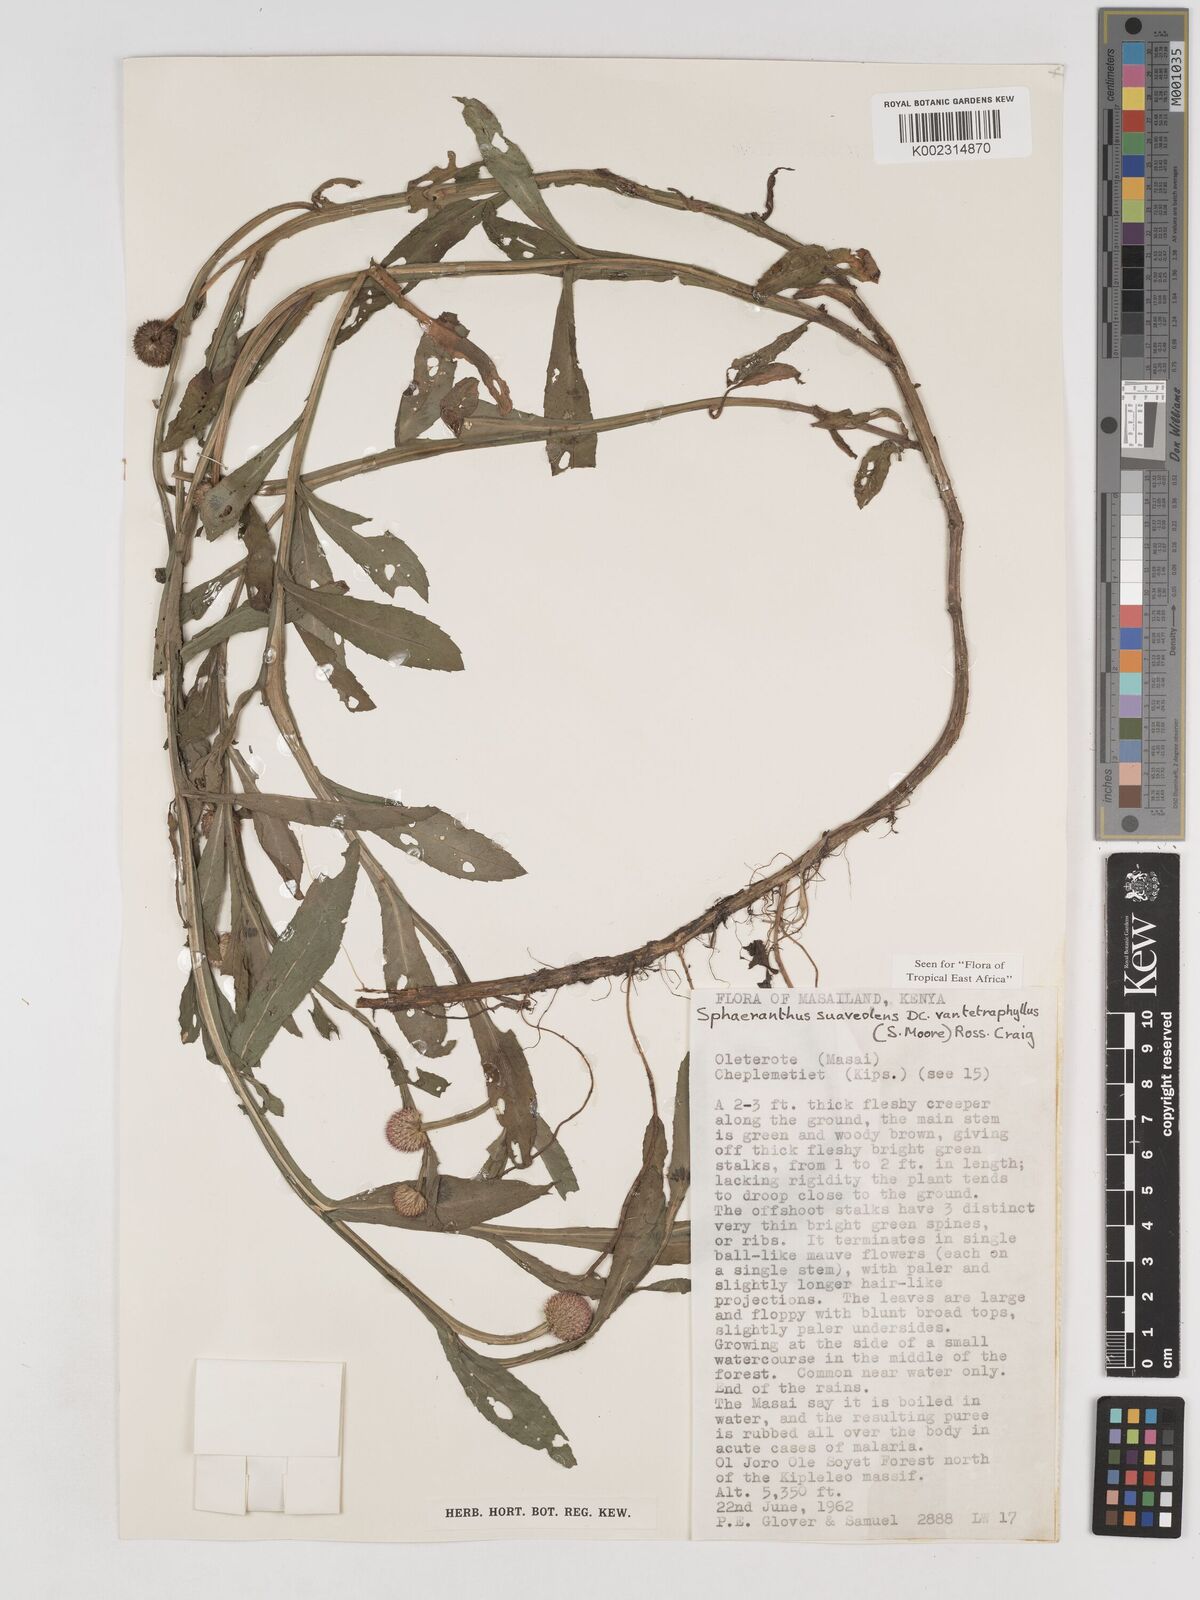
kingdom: Plantae
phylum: Tracheophyta
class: Magnoliopsida
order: Asterales
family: Asteraceae
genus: Sphaeranthus
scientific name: Sphaeranthus suaveolens
